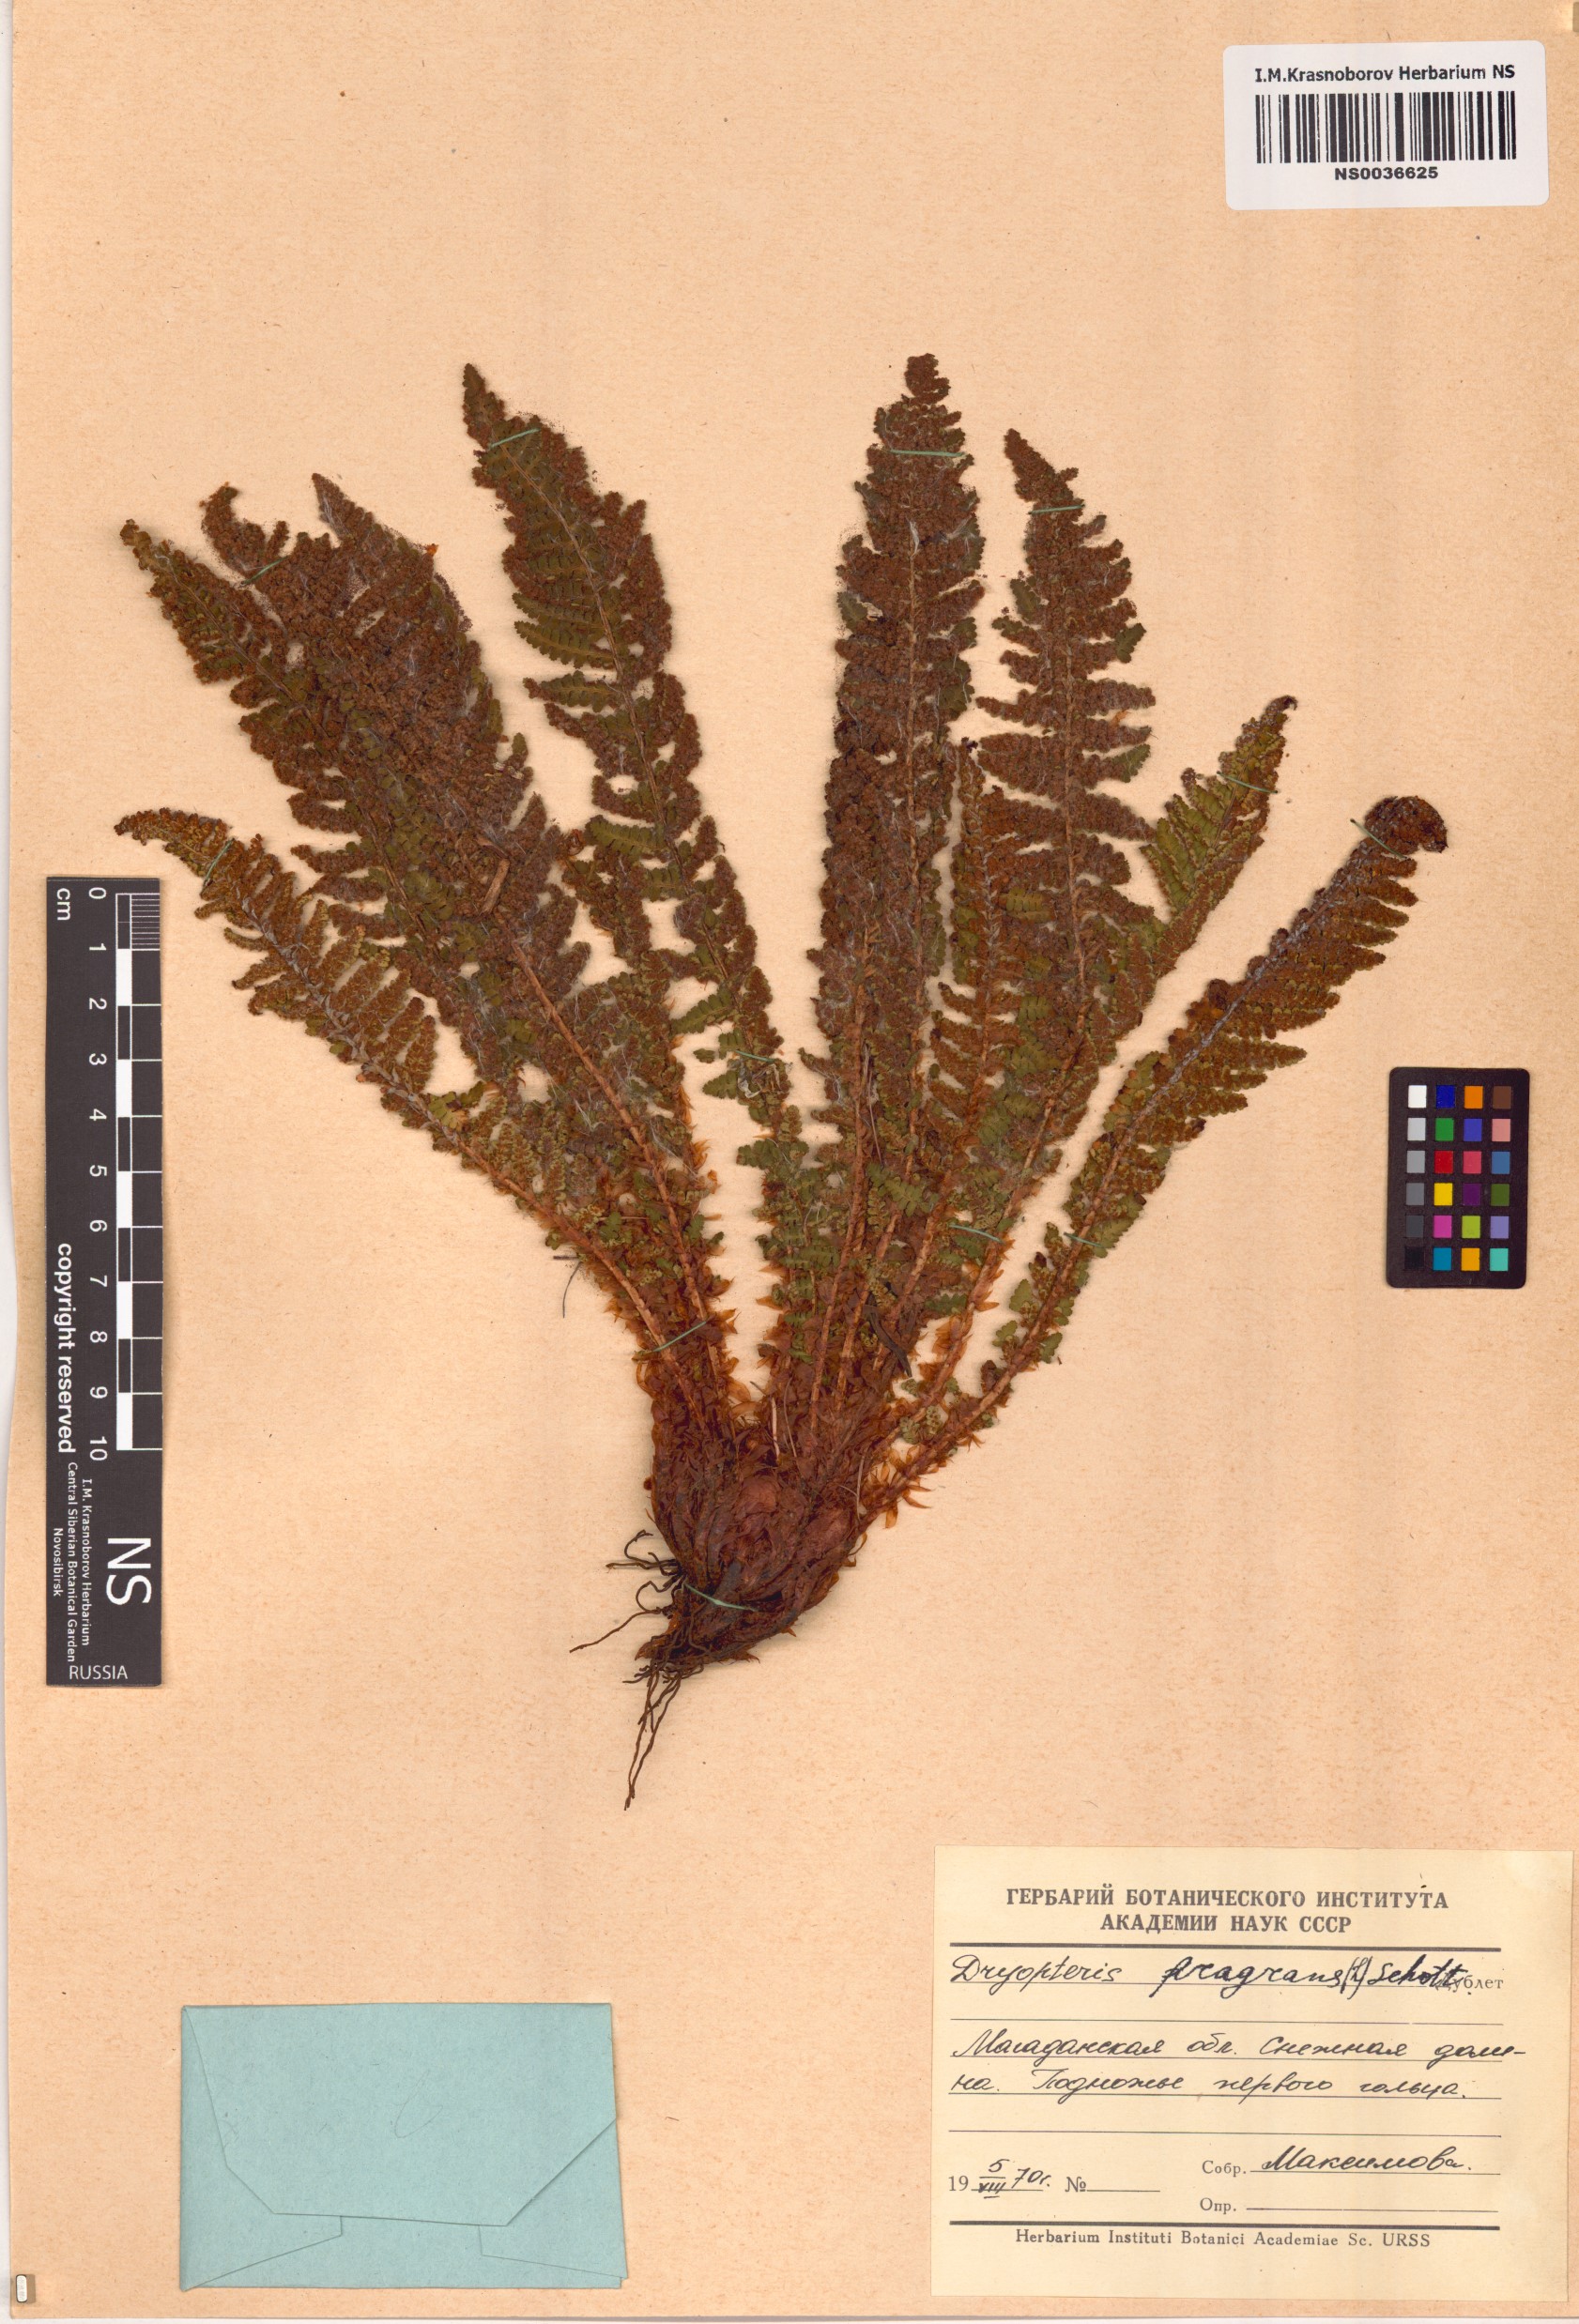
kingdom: Plantae
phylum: Tracheophyta
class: Polypodiopsida
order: Polypodiales
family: Dryopteridaceae
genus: Dryopteris
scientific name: Dryopteris fragrans
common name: Fragrant wood fern
